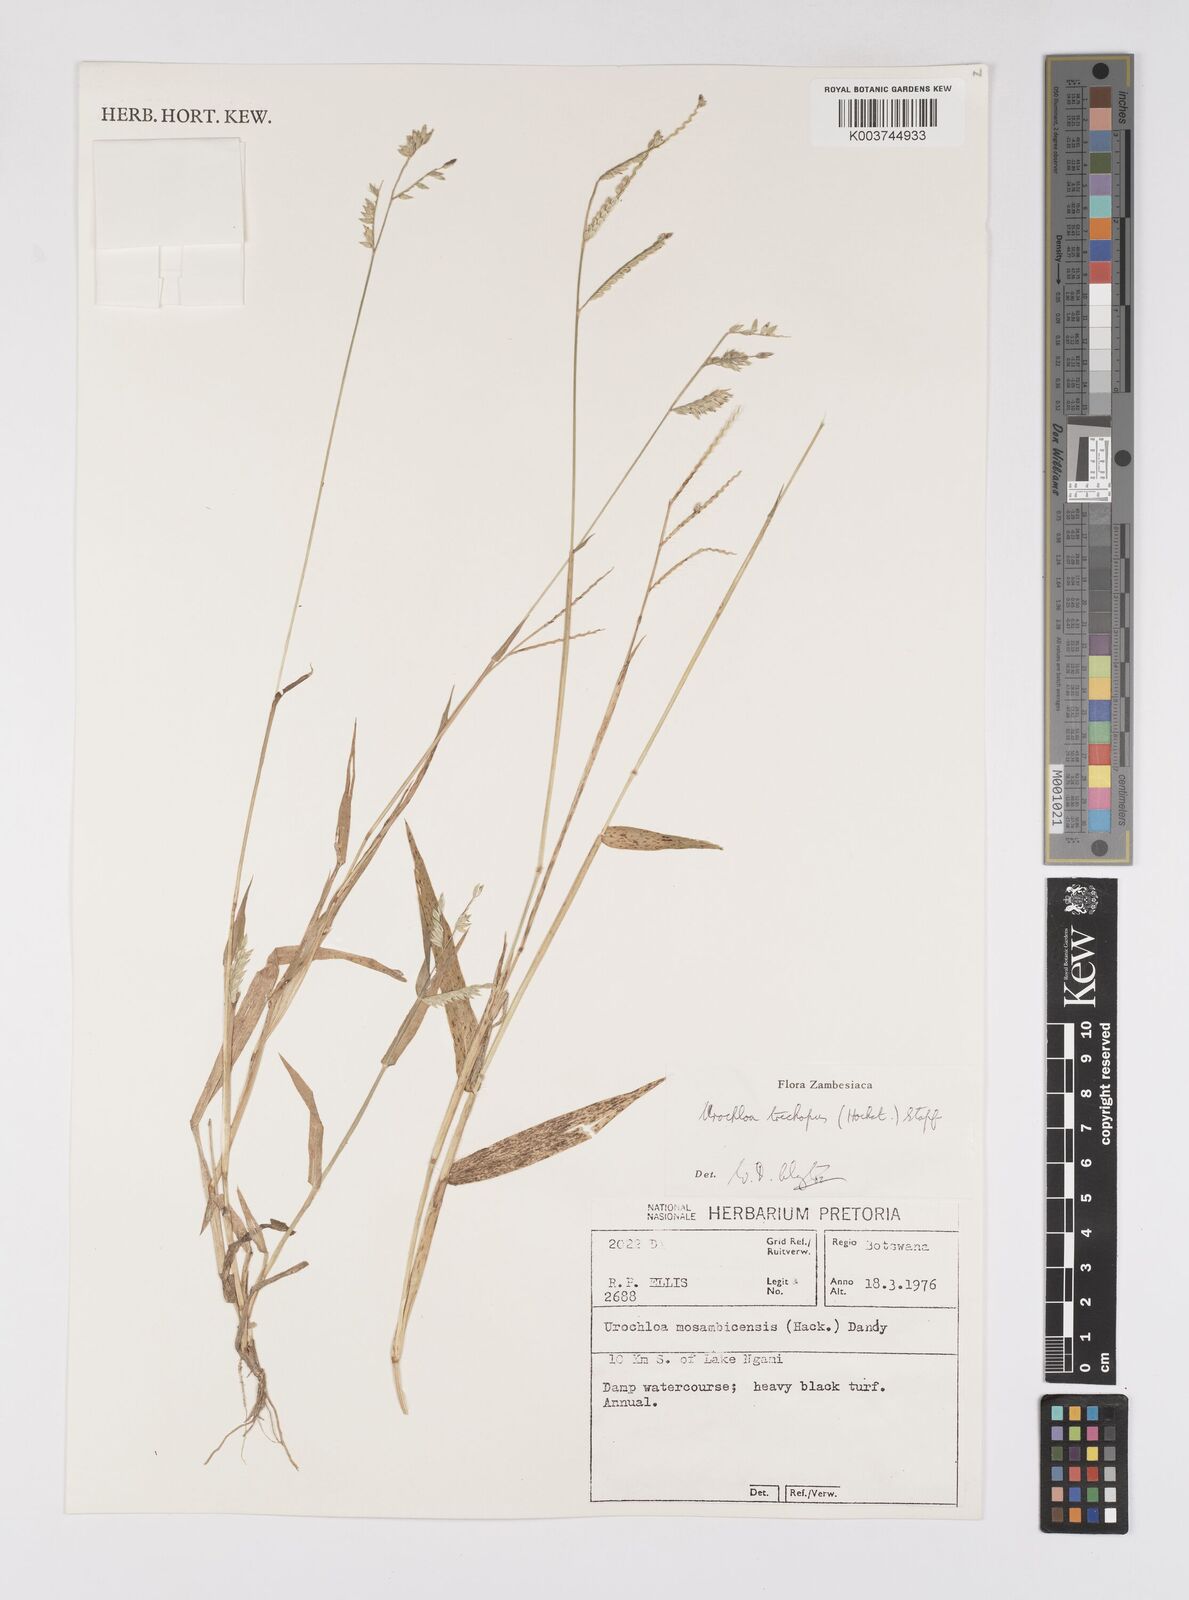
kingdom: Plantae
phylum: Tracheophyta
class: Liliopsida
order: Poales
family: Poaceae
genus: Urochloa
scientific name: Urochloa trichopus
